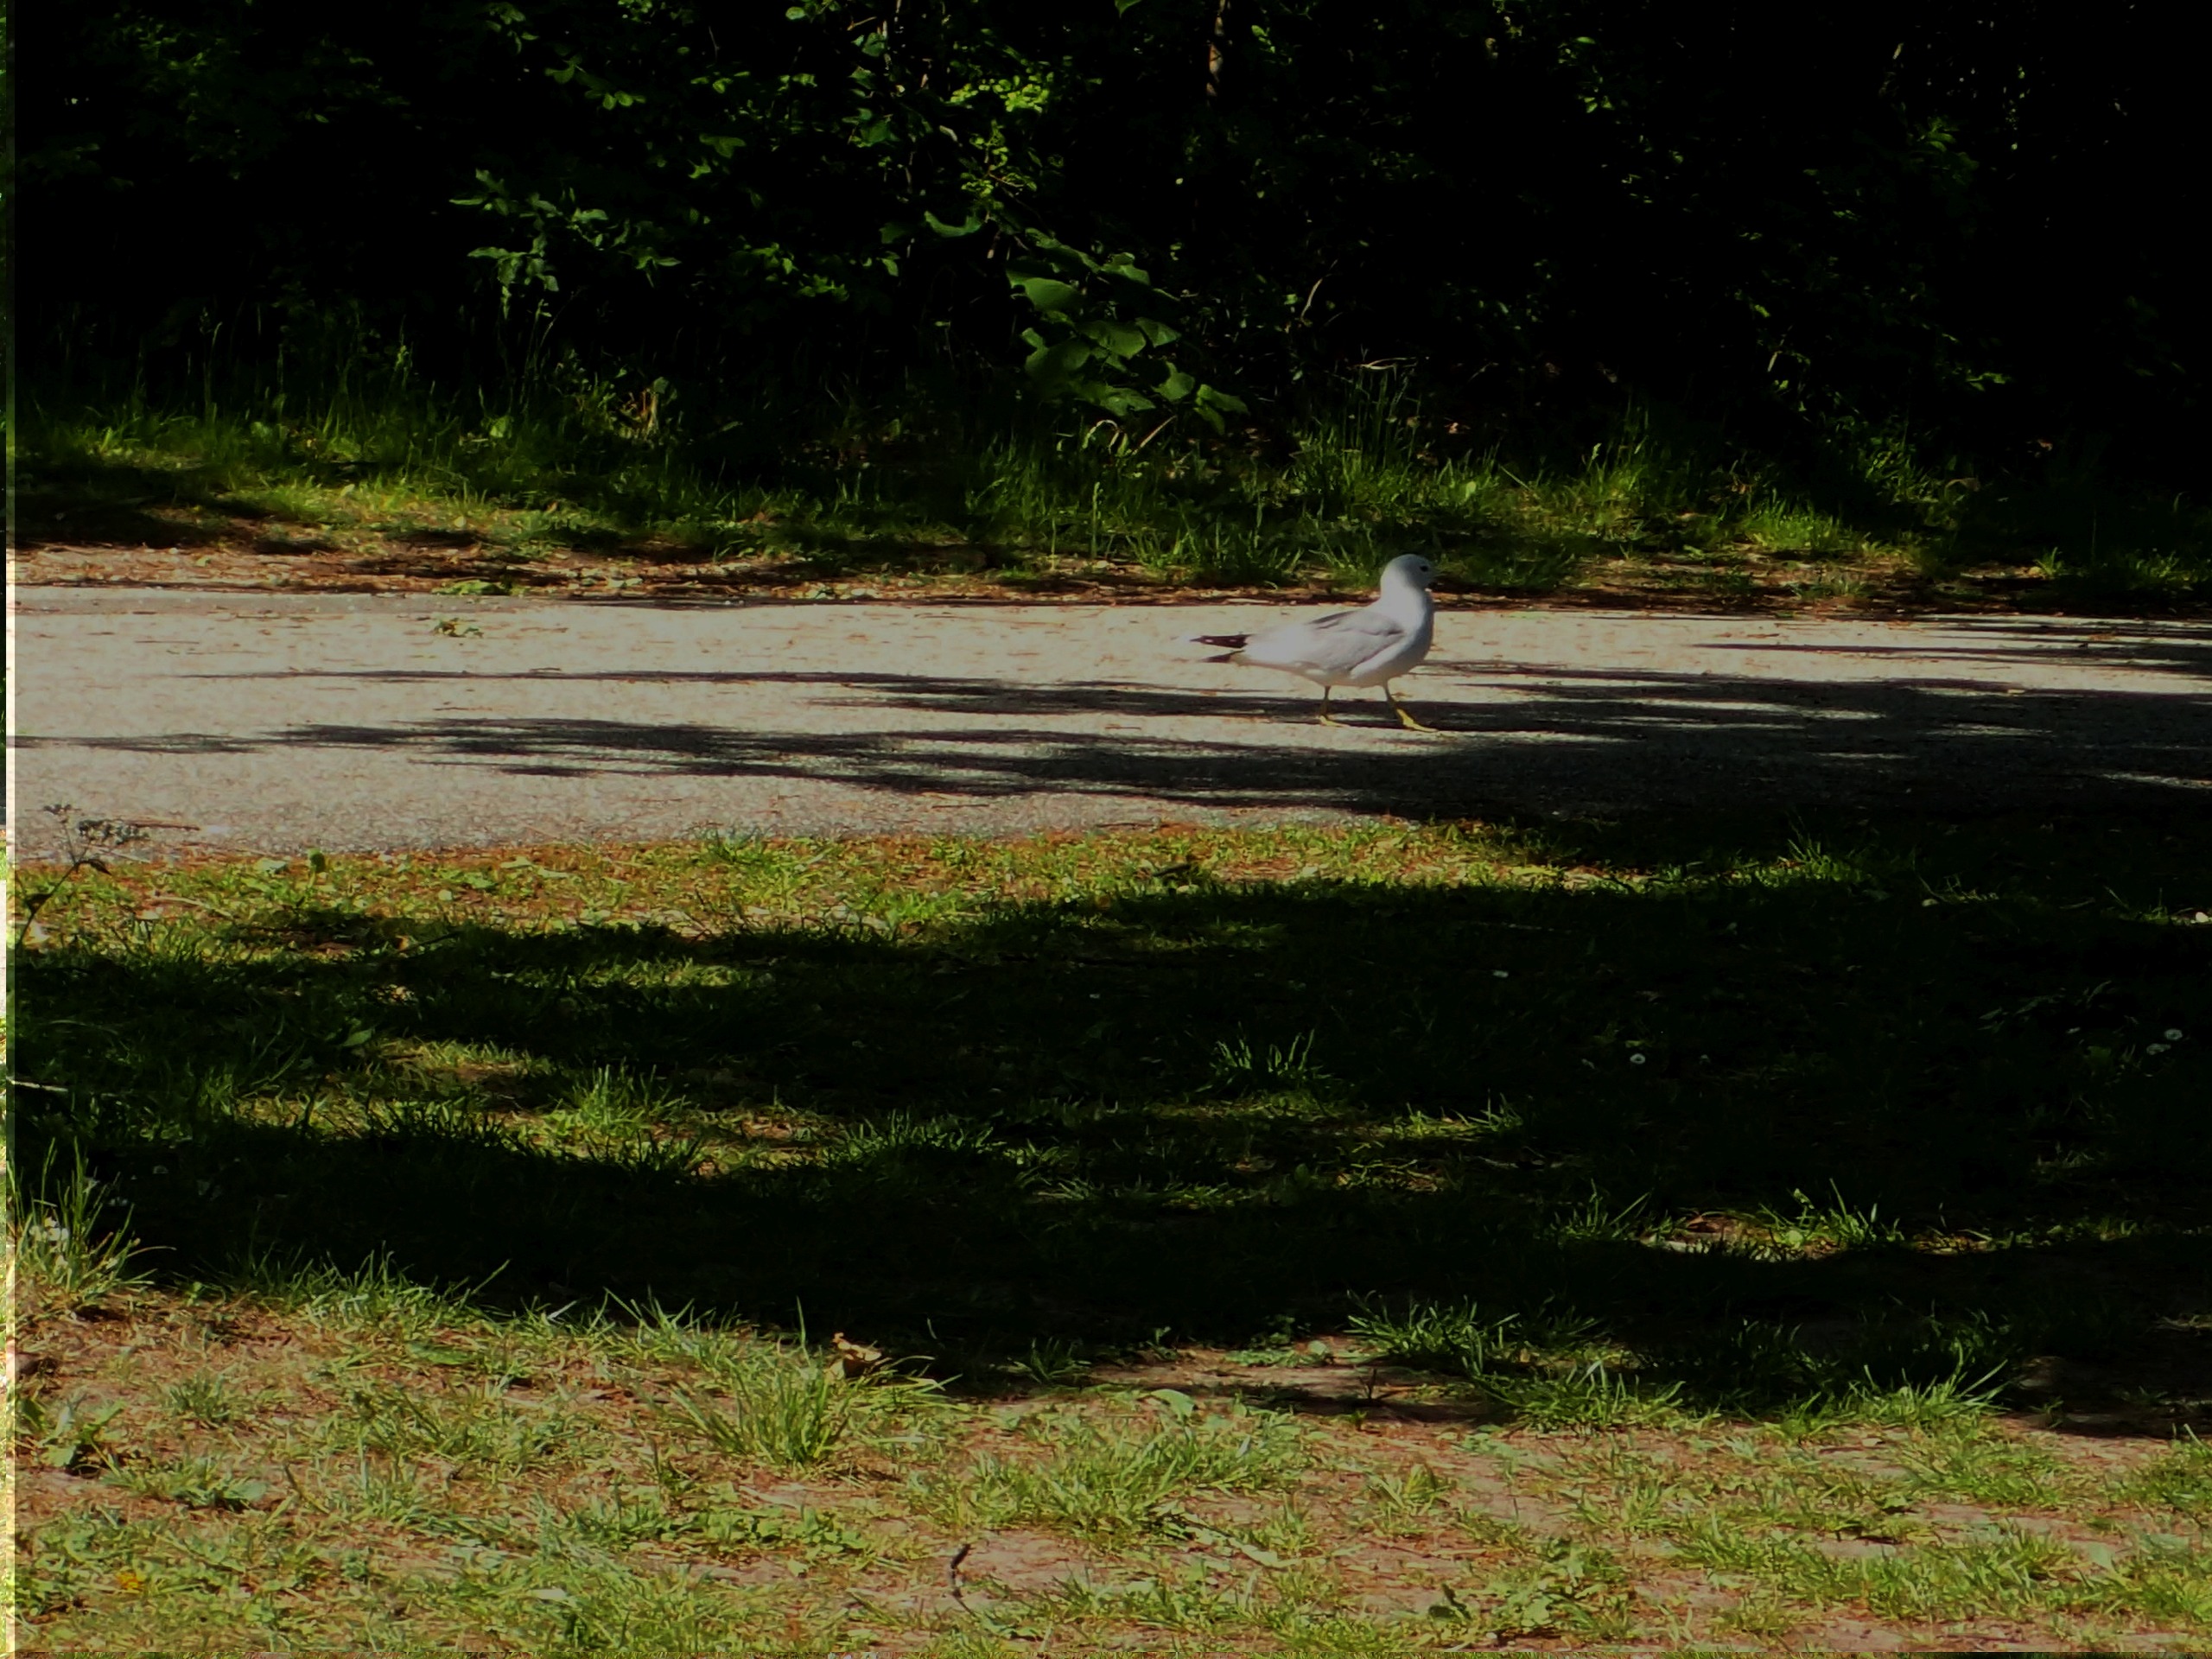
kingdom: Animalia
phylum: Chordata
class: Aves
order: Charadriiformes
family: Laridae
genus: Larus
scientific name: Larus canus
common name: Stormmåge
